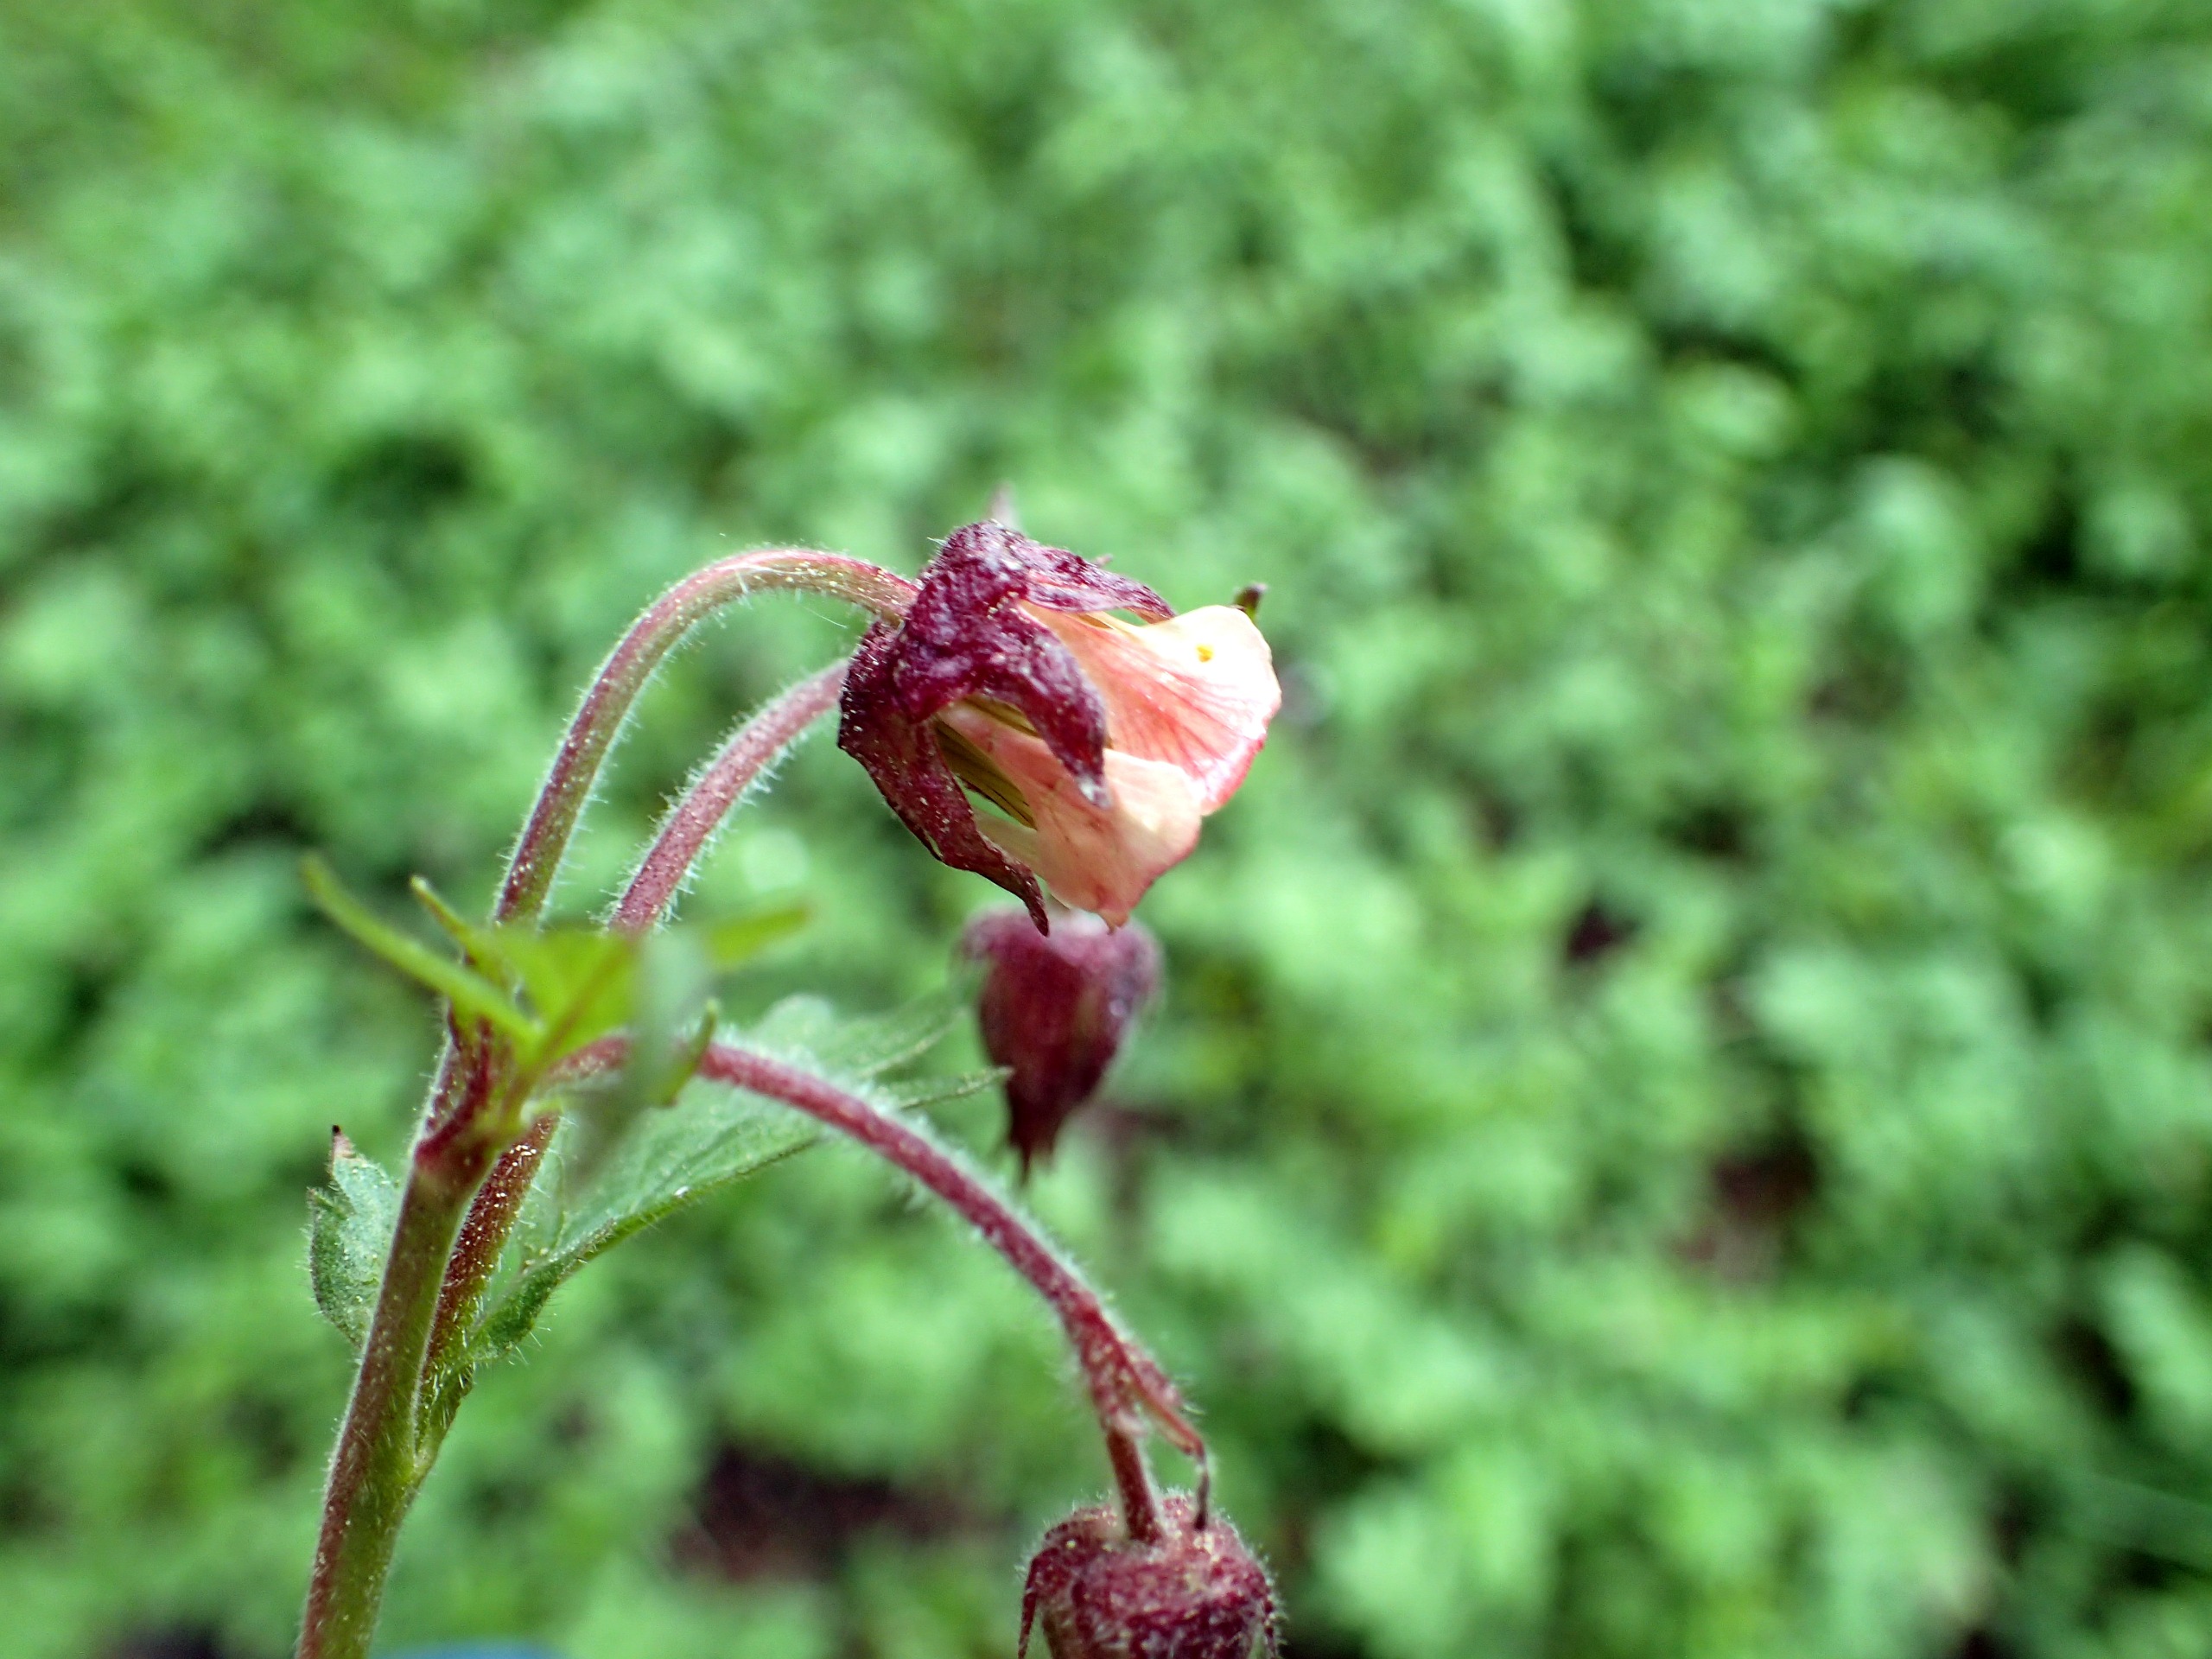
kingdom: Plantae
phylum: Tracheophyta
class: Magnoliopsida
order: Rosales
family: Rosaceae
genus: Geum
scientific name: Geum rivale
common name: Eng-nellikerod
